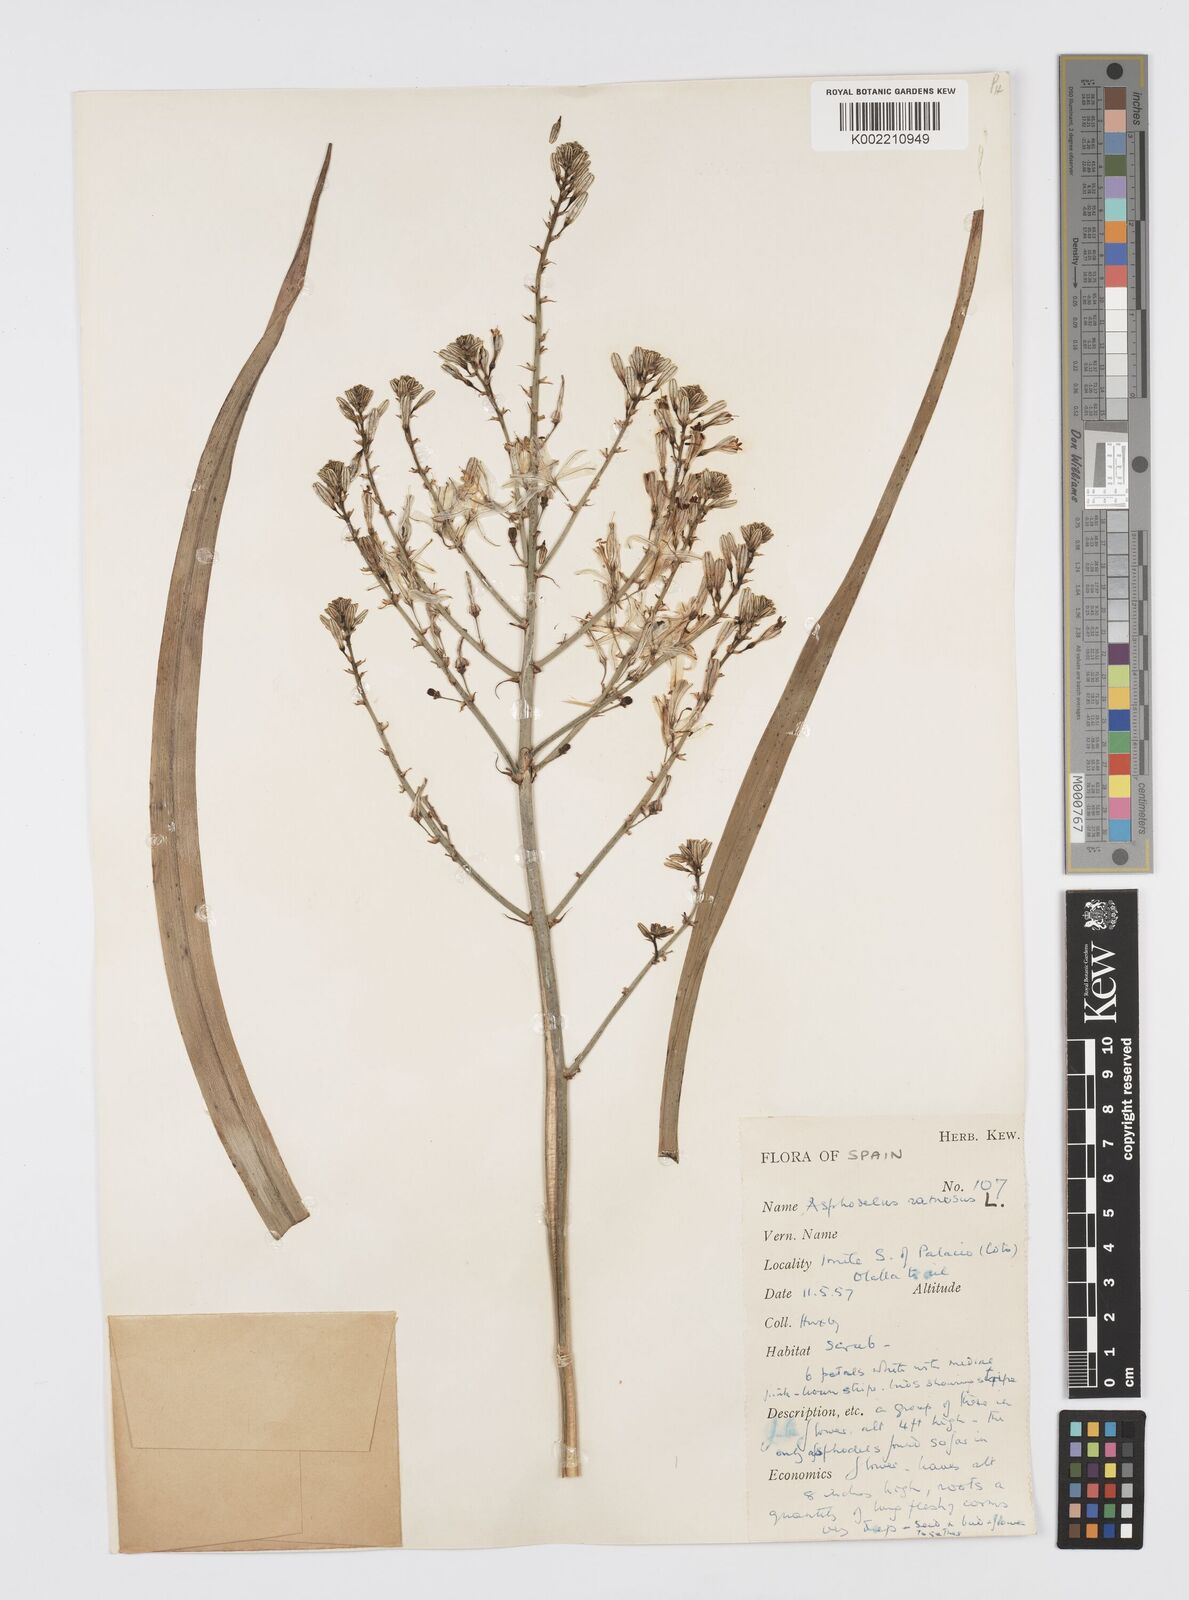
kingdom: Plantae
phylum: Tracheophyta
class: Liliopsida
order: Asparagales
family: Asphodelaceae
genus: Asphodelus
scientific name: Asphodelus ramosus
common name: Silverrod
